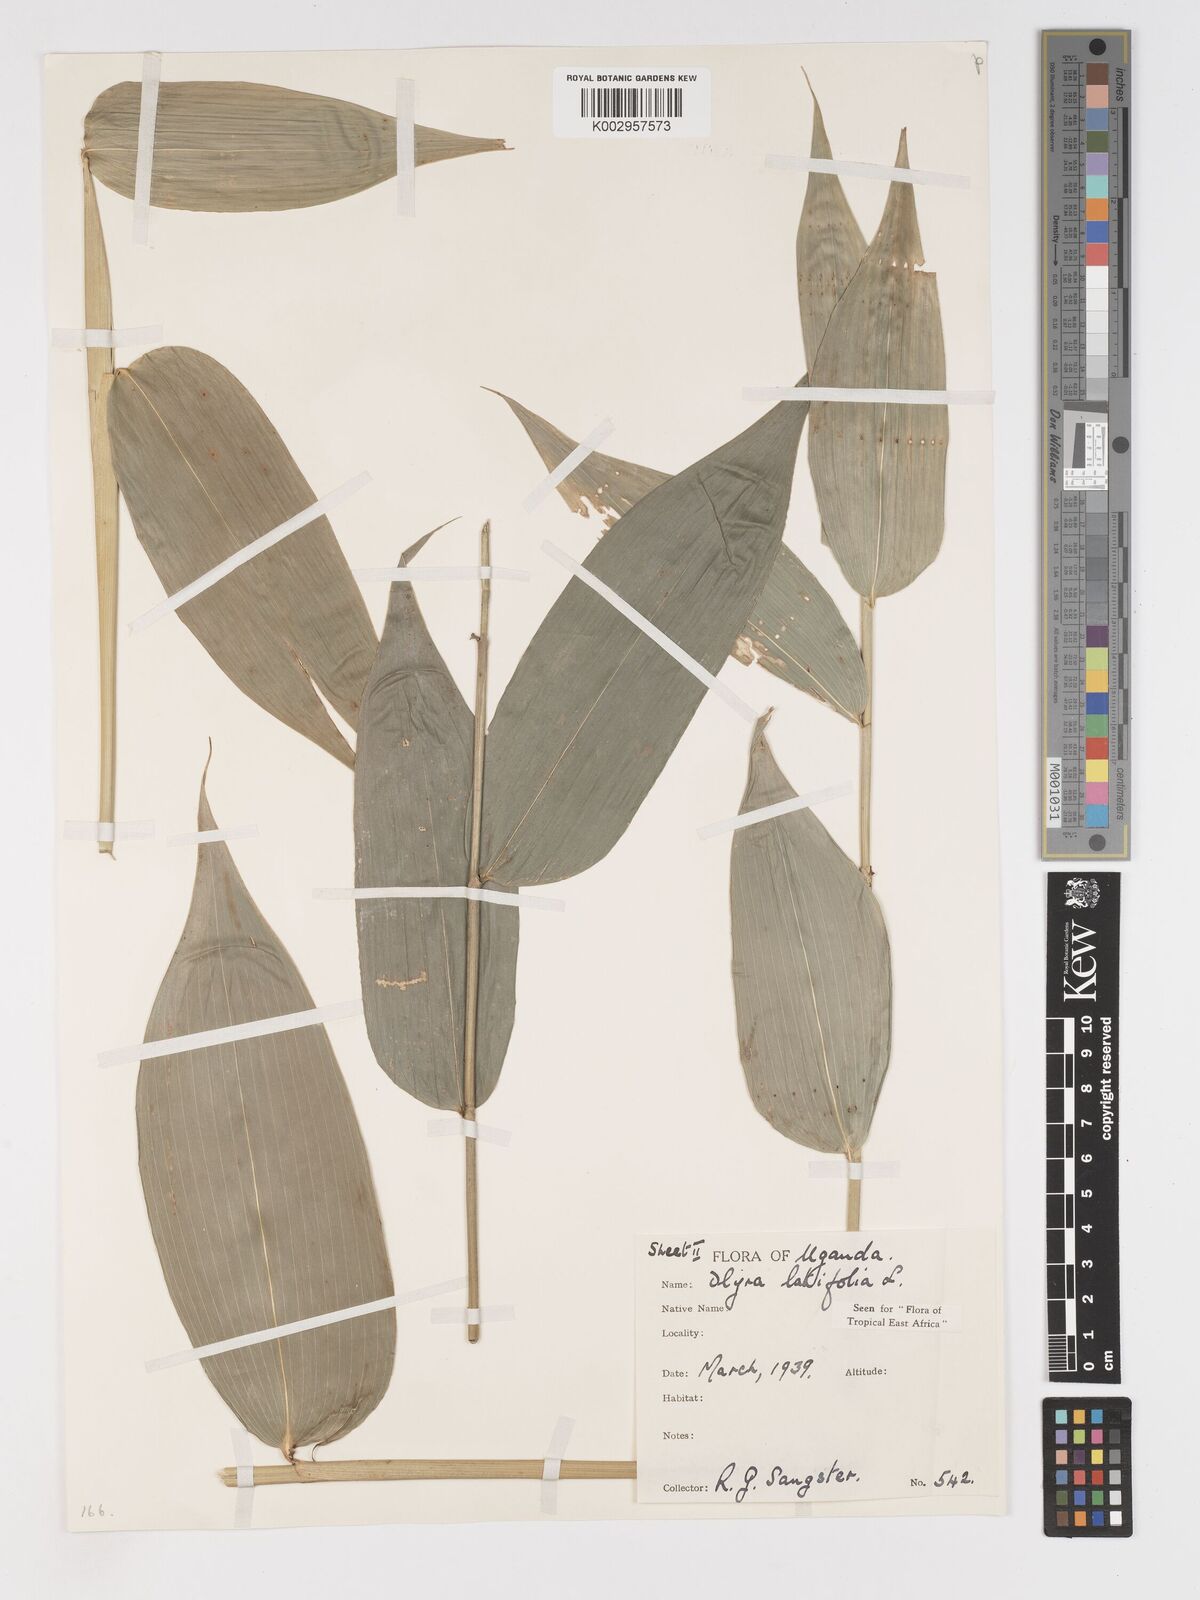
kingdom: Plantae
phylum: Tracheophyta
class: Liliopsida
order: Poales
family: Poaceae
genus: Olyra
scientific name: Olyra latifolia
